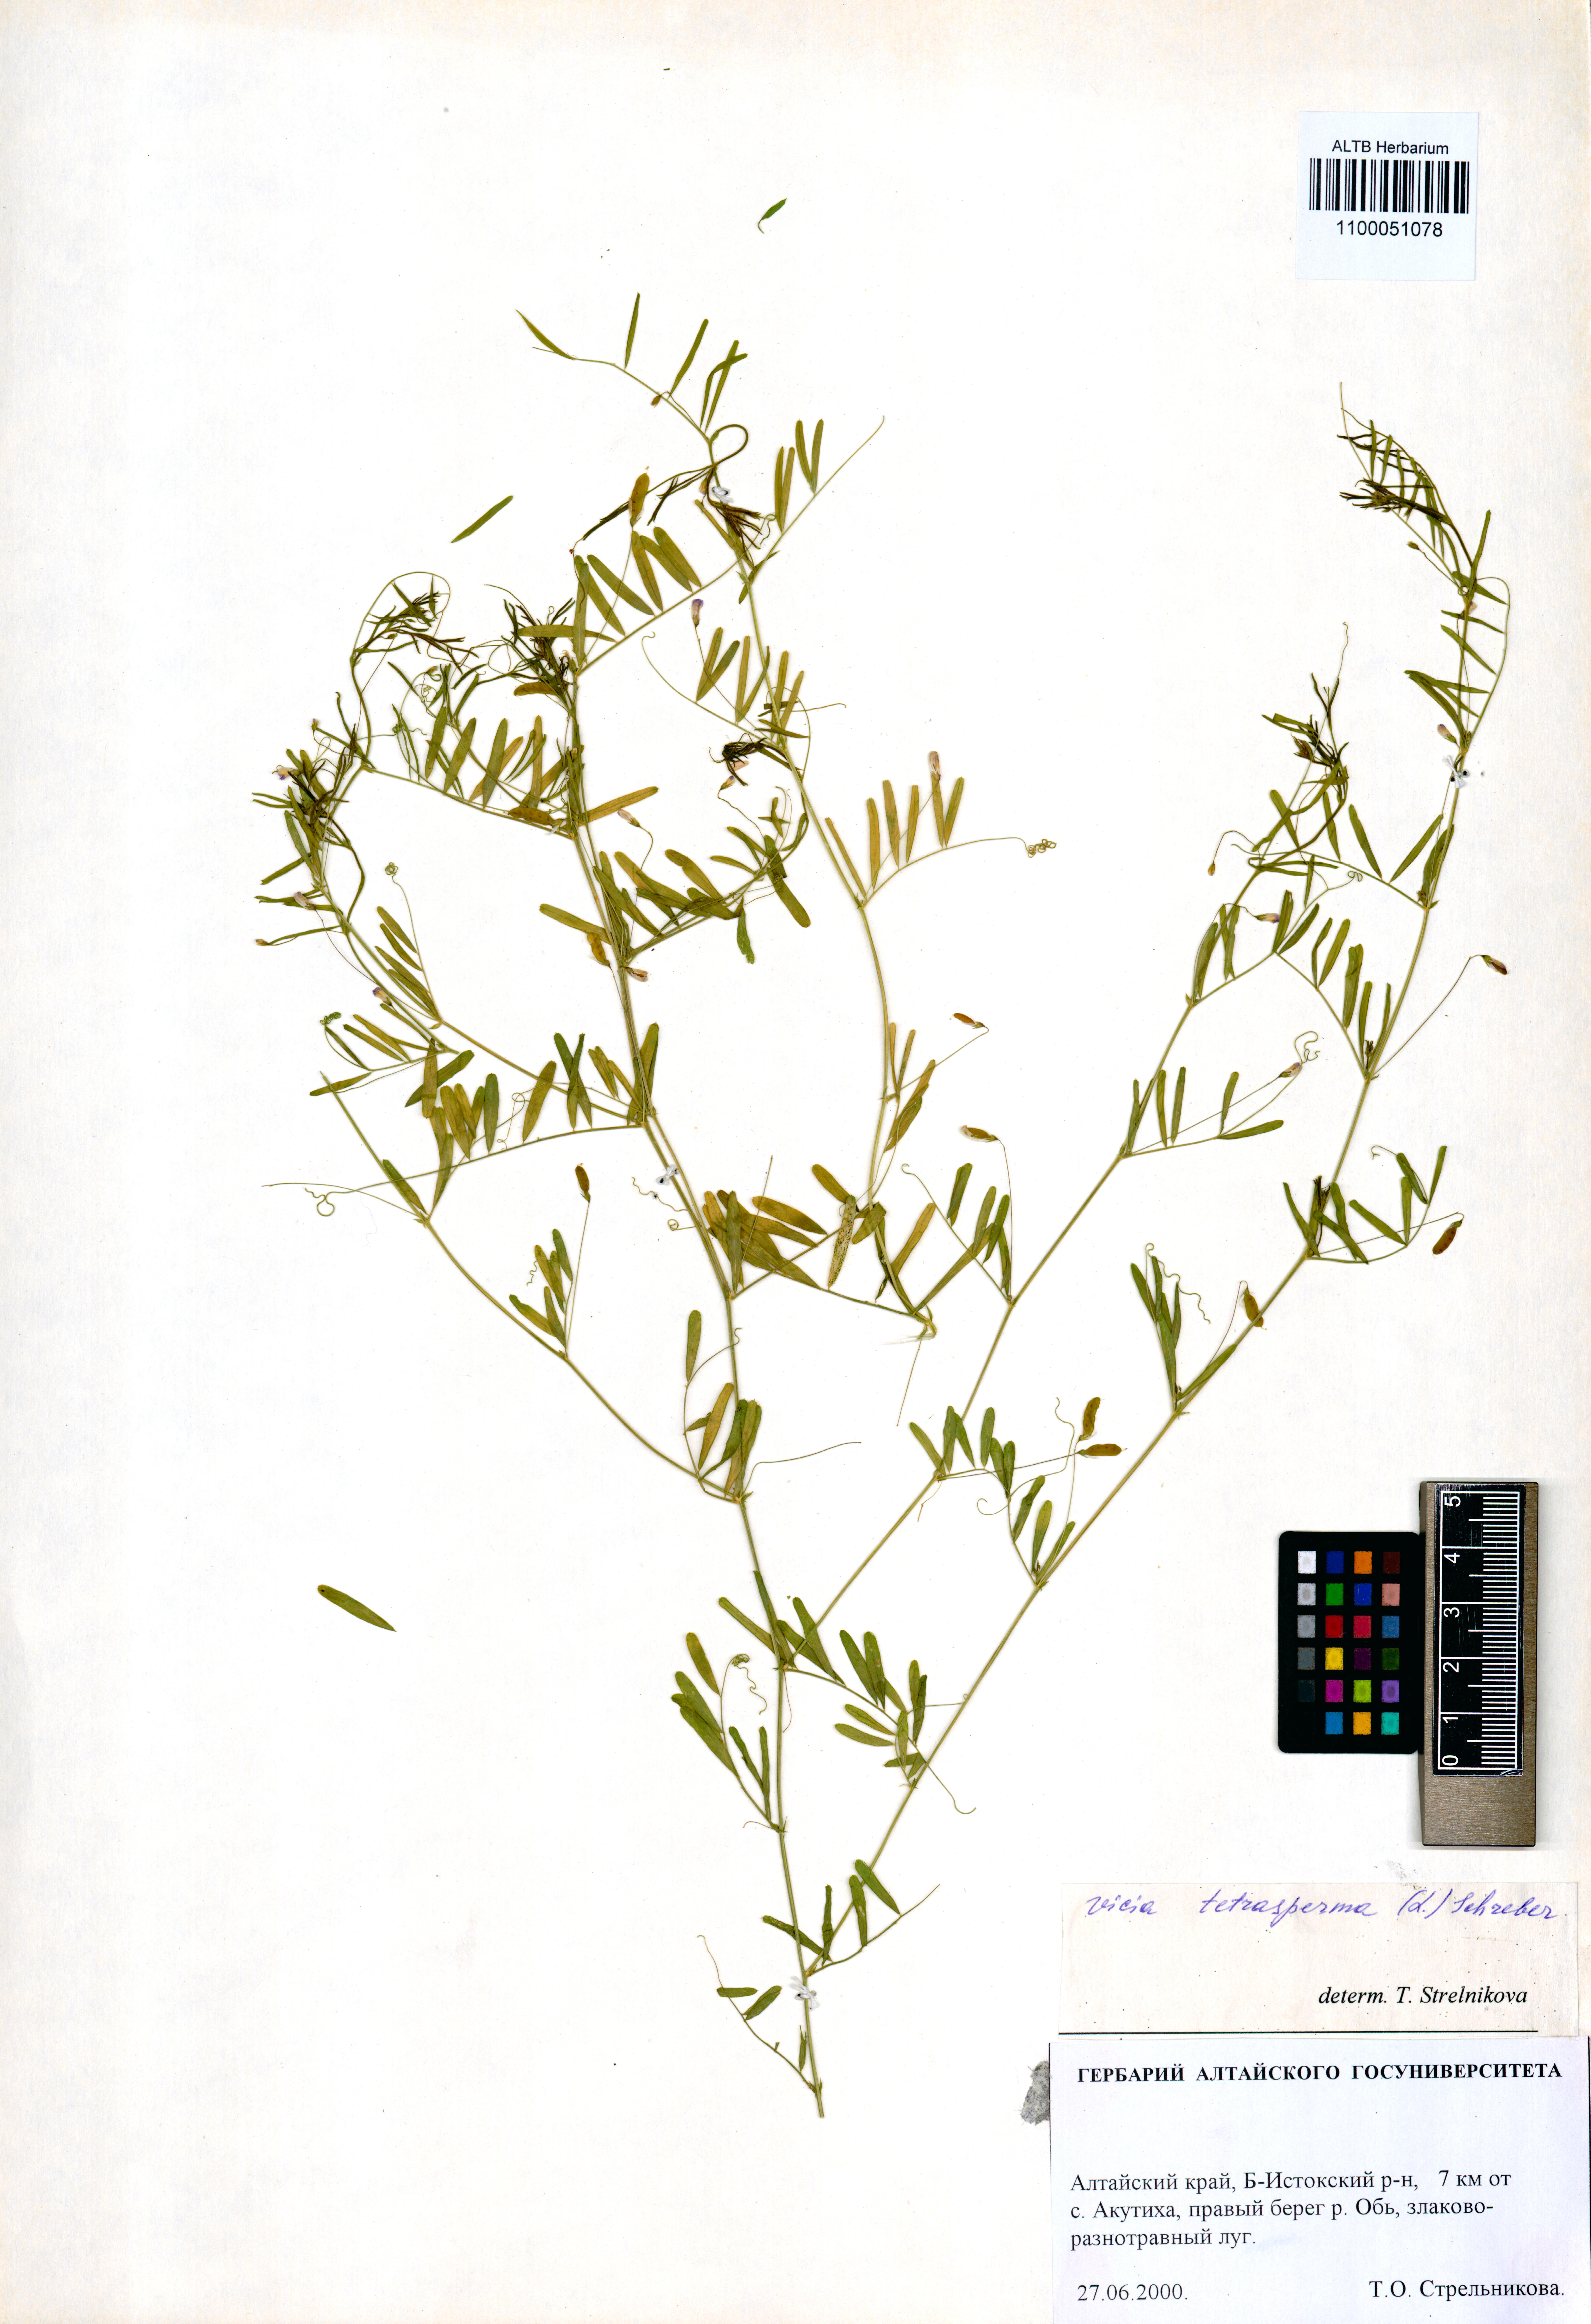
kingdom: Plantae
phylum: Tracheophyta
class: Magnoliopsida
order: Fabales
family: Fabaceae
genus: Vicia
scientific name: Vicia tetrasperma
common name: Smooth tare
